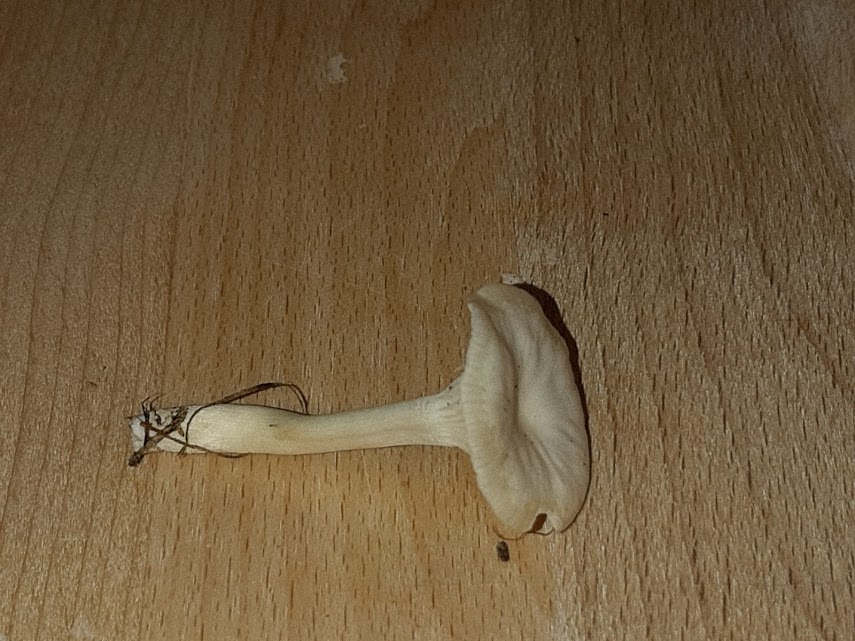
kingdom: Fungi
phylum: Basidiomycota
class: Agaricomycetes
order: Agaricales
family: Hygrophoraceae
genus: Cuphophyllus
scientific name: Cuphophyllus virgineus
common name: snehvid vokshat
